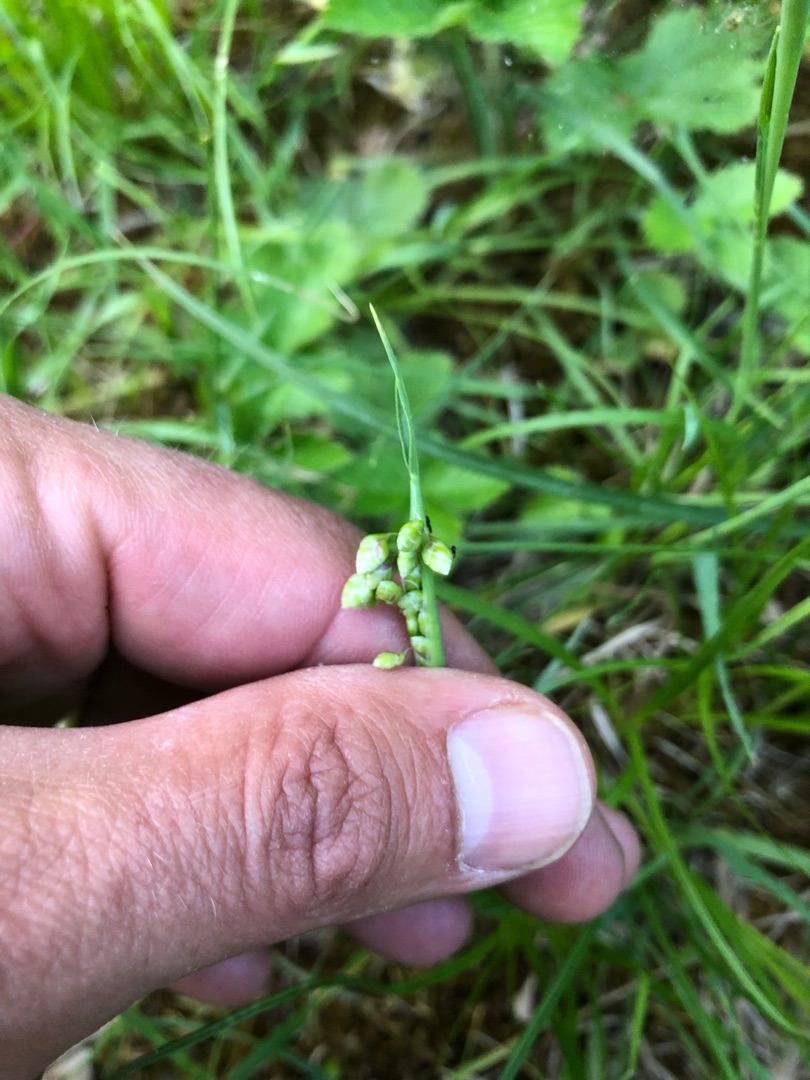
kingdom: Plantae
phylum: Tracheophyta
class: Liliopsida
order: Poales
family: Poaceae
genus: Briza
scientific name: Briza media
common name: Hjertegræs
